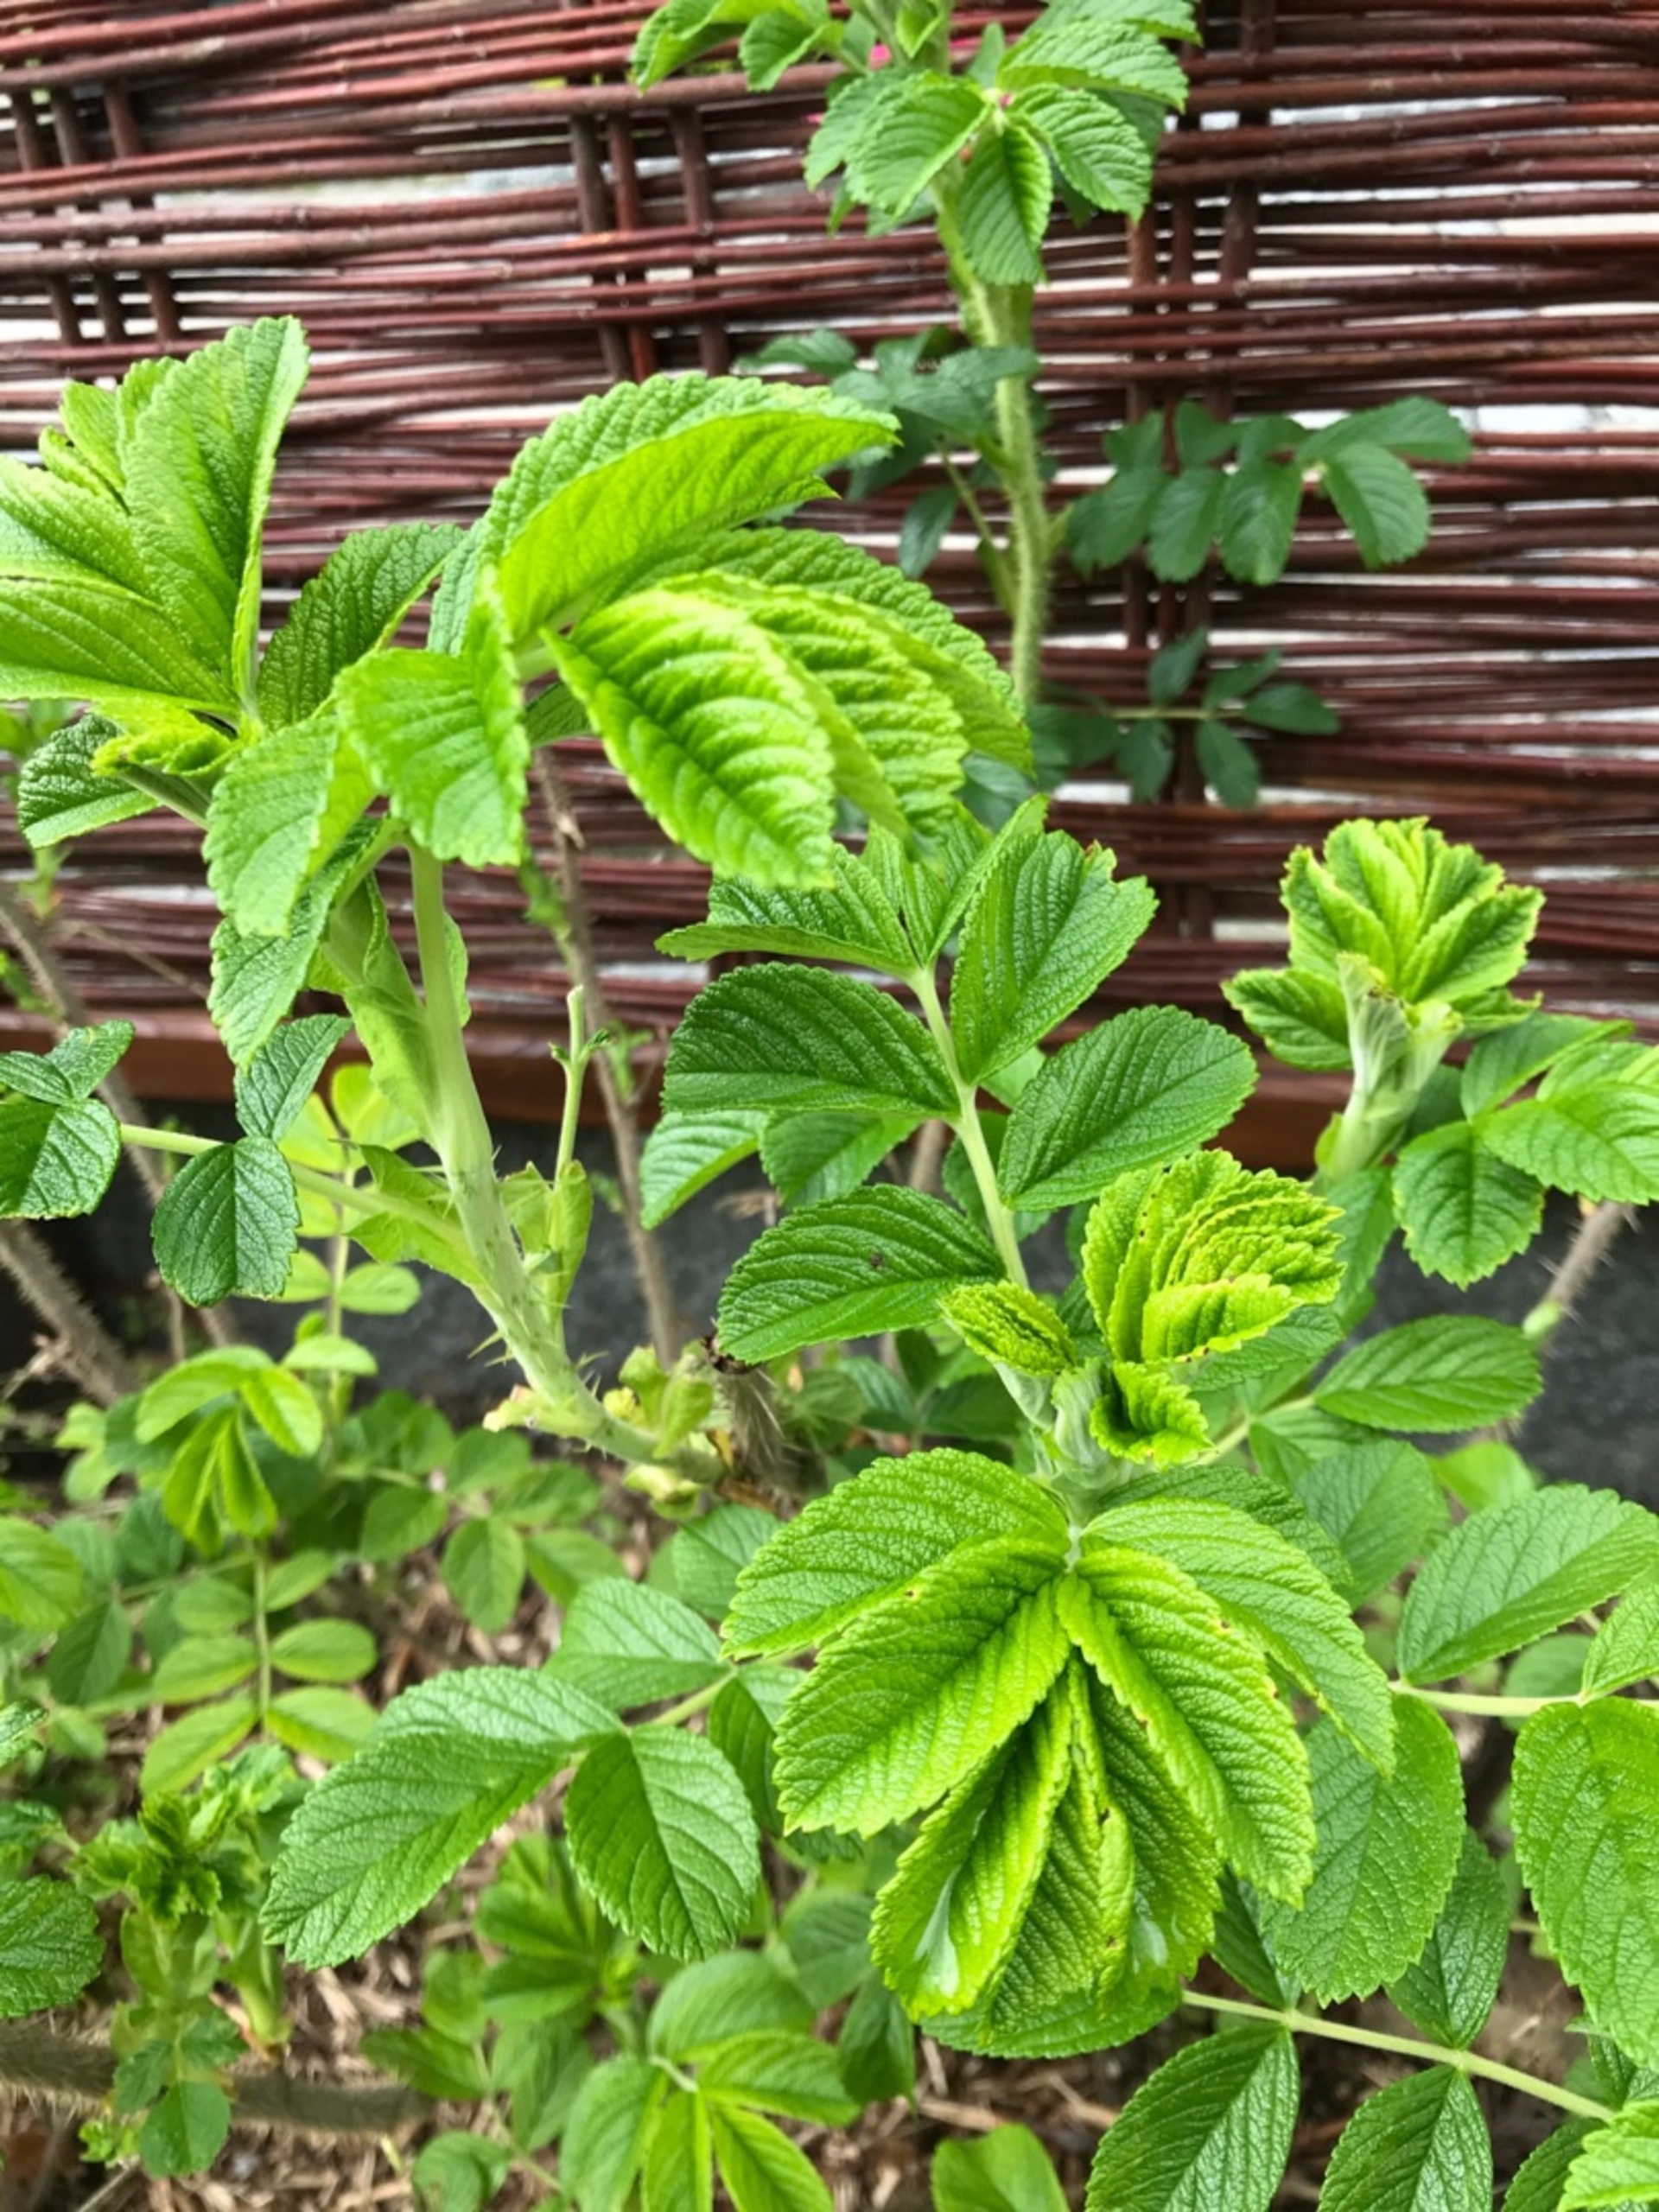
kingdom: Plantae
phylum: Tracheophyta
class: Magnoliopsida
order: Rosales
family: Rosaceae
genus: Rosa
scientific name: Rosa rugosa
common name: Rynket rose
